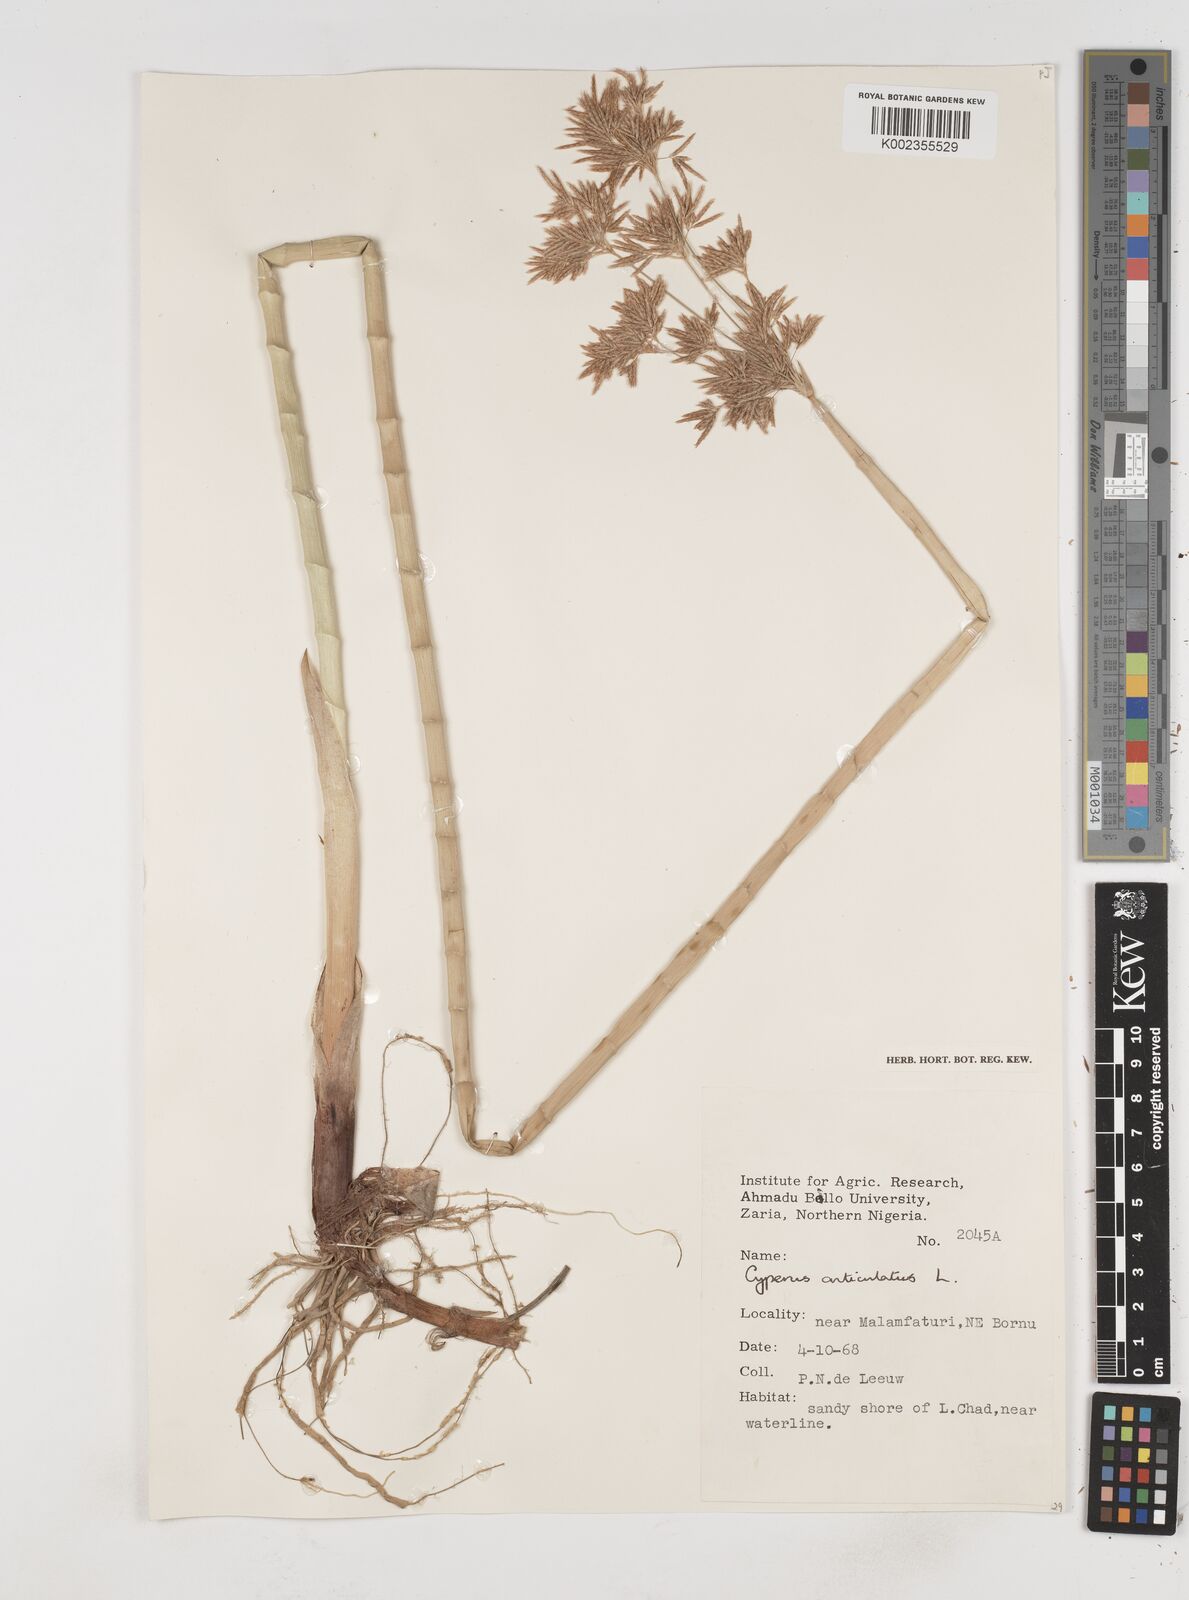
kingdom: Plantae
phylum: Tracheophyta
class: Liliopsida
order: Poales
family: Cyperaceae
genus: Cyperus
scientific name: Cyperus articulatus
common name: Jointed flatsedge
